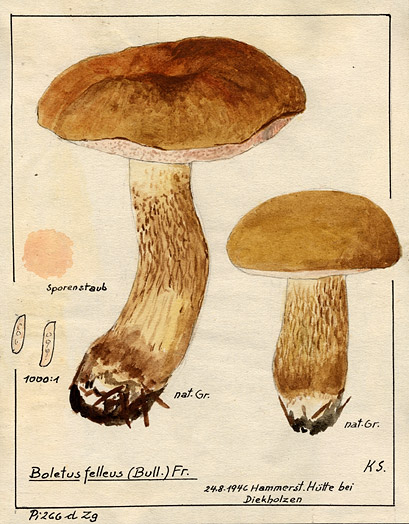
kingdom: Fungi
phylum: Basidiomycota
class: Agaricomycetes
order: Boletales
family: Boletaceae
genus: Tylopilus
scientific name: Tylopilus felleus
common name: Bitter bolete
